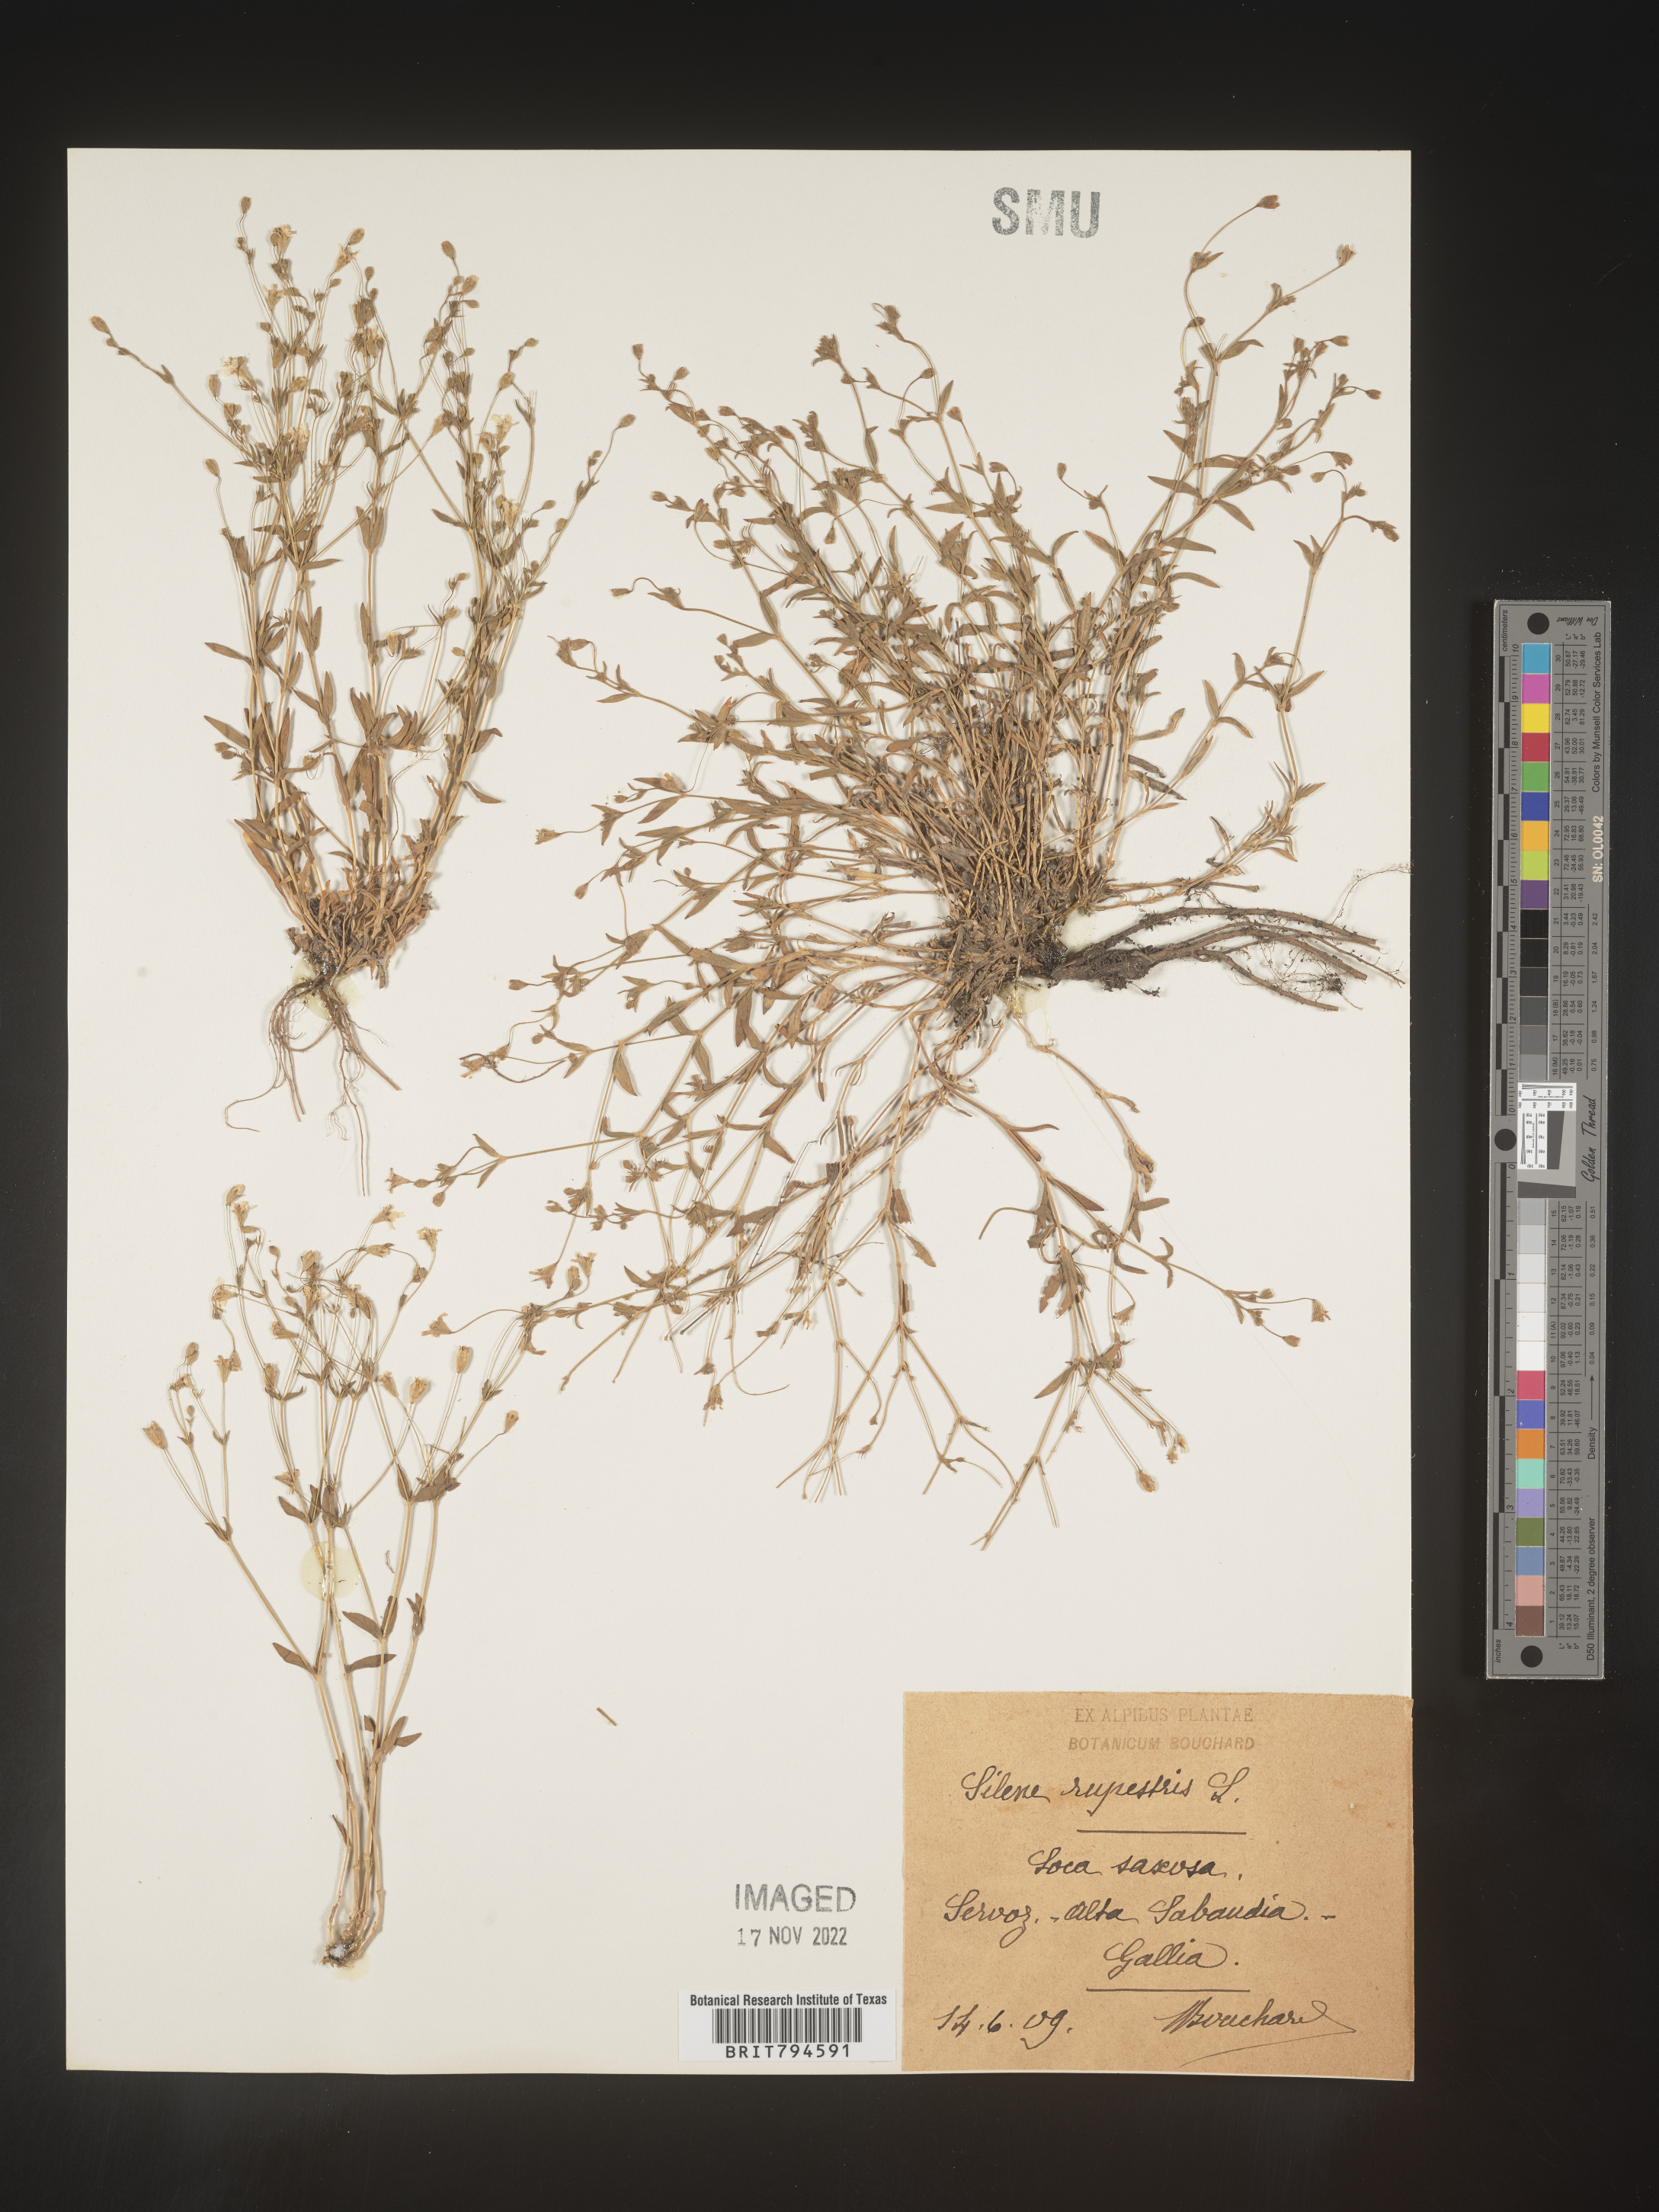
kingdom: Plantae
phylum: Tracheophyta
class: Magnoliopsida
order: Caryophyllales
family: Caryophyllaceae
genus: Atocion
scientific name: Atocion rupestre
